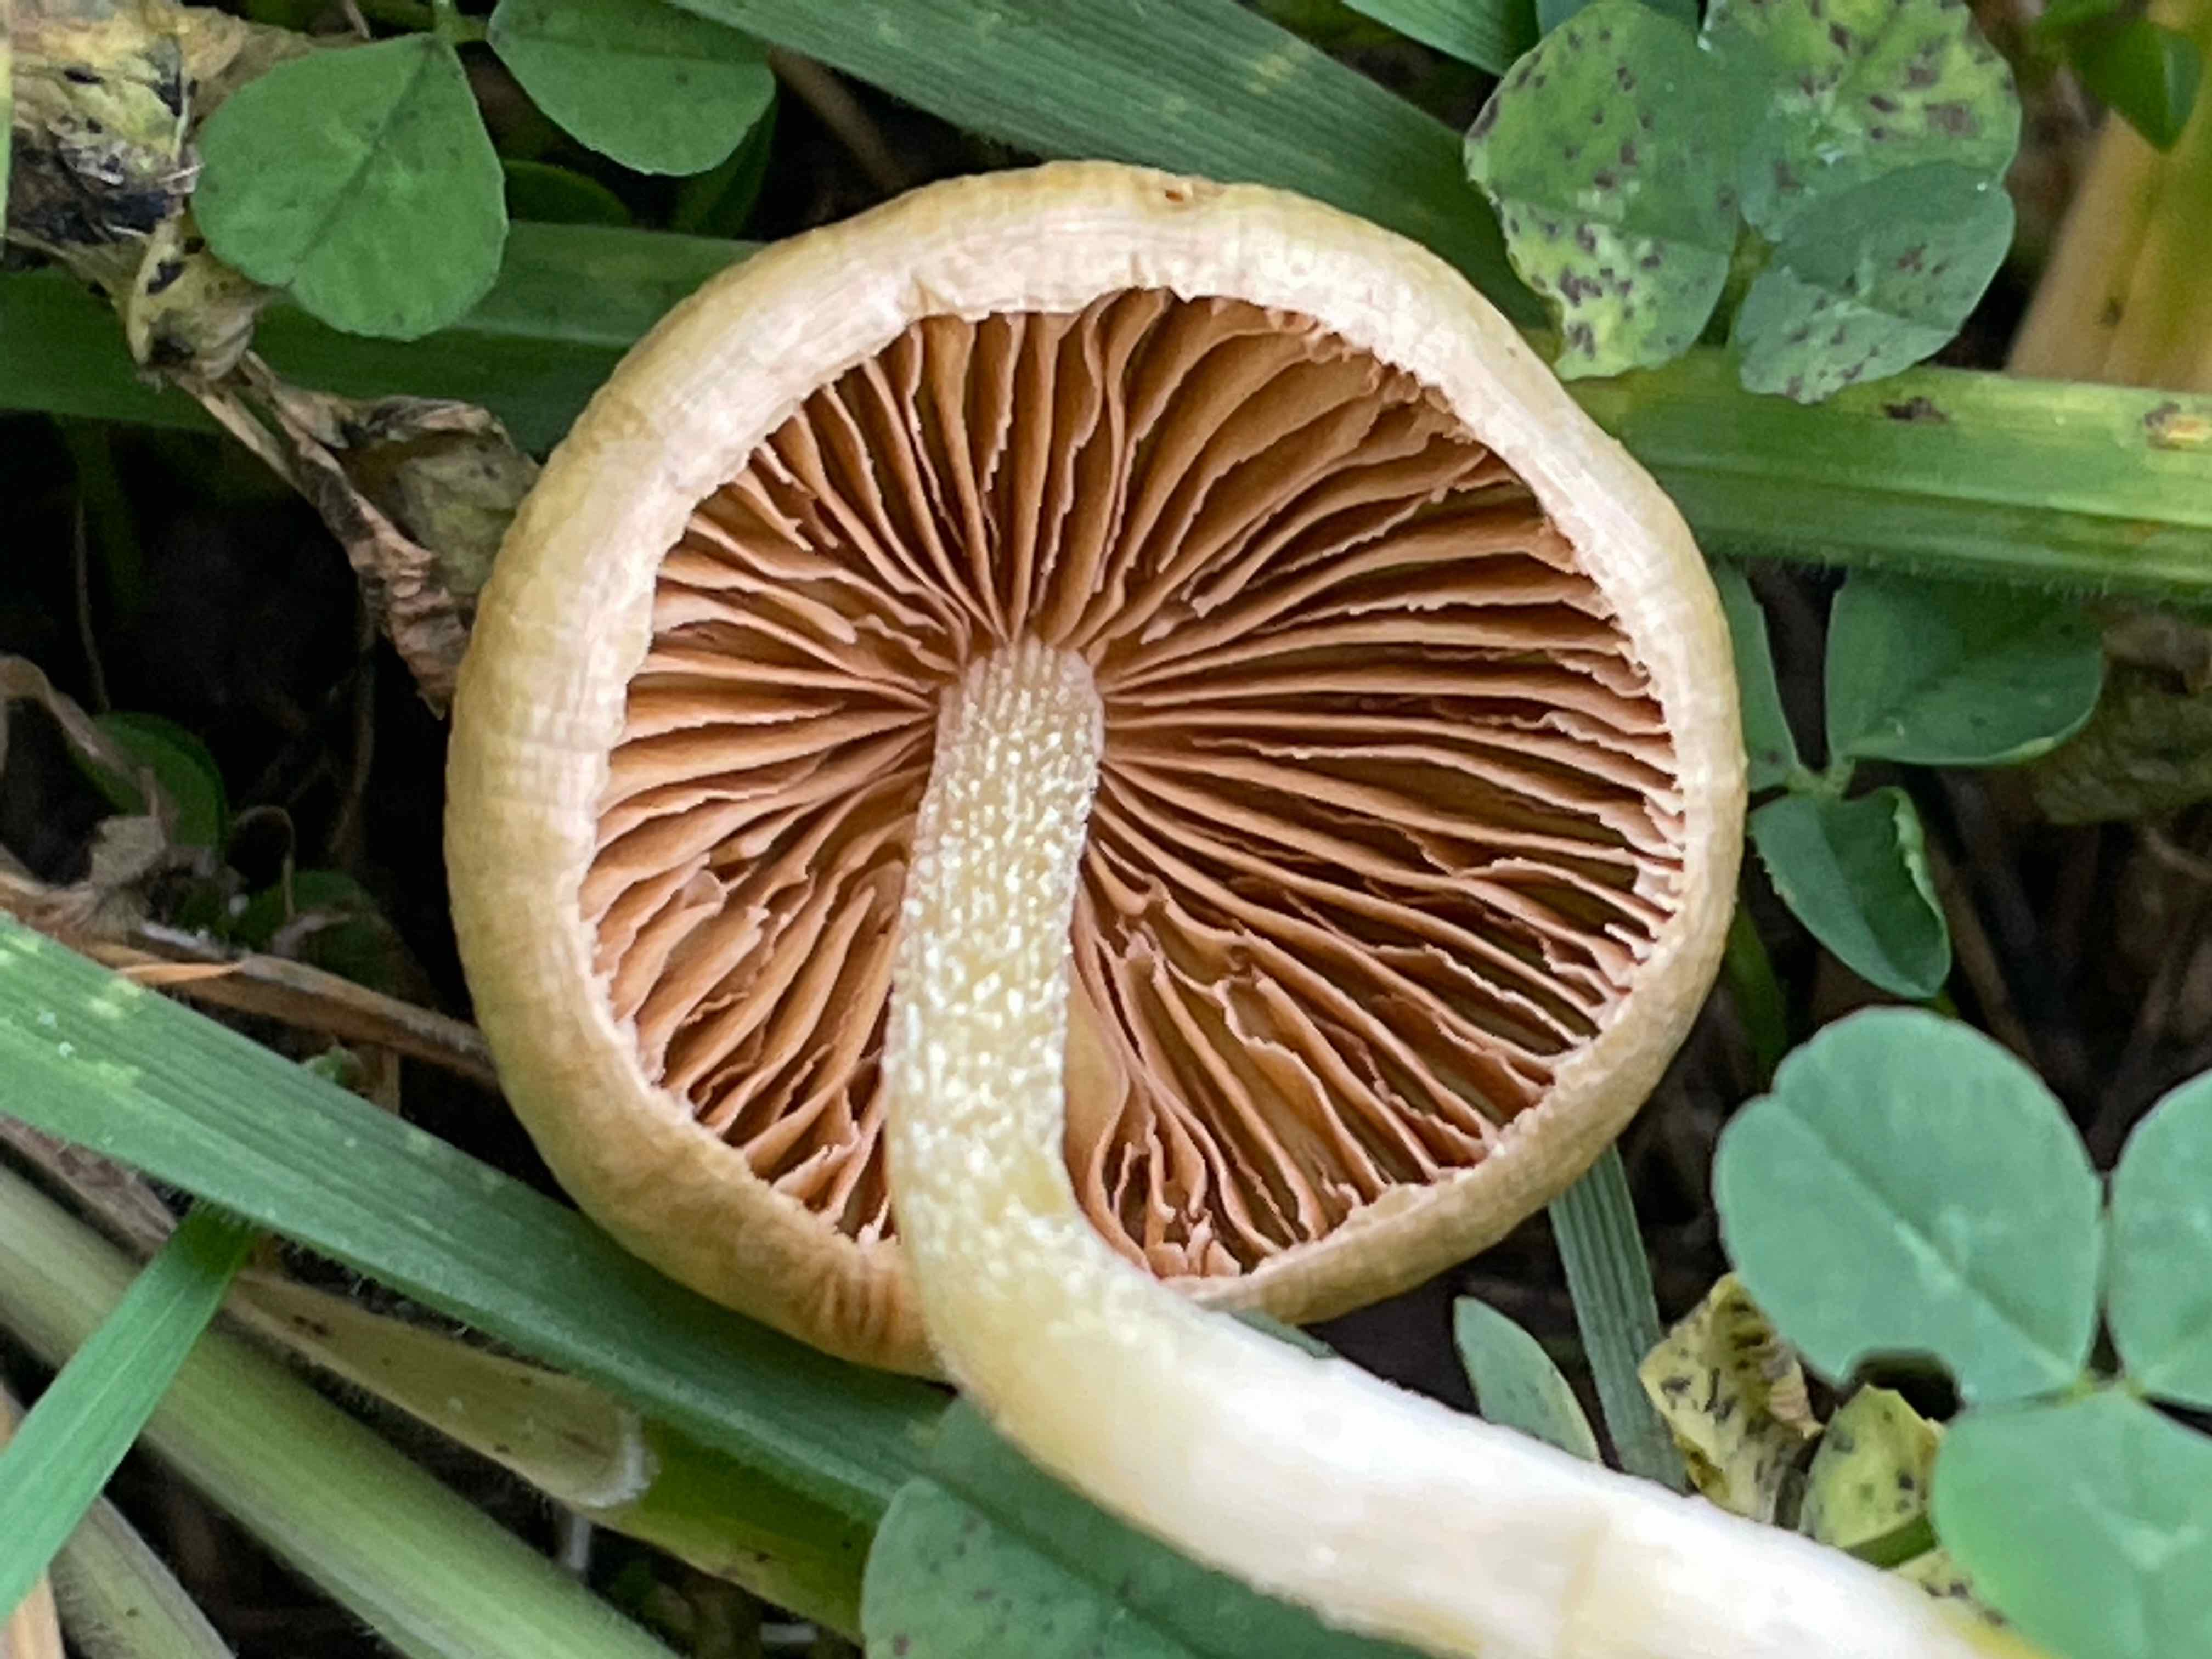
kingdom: Fungi
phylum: Basidiomycota
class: Agaricomycetes
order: Agaricales
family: Bolbitiaceae
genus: Bolbitius
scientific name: Bolbitius titubans
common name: almindelig gulhat
